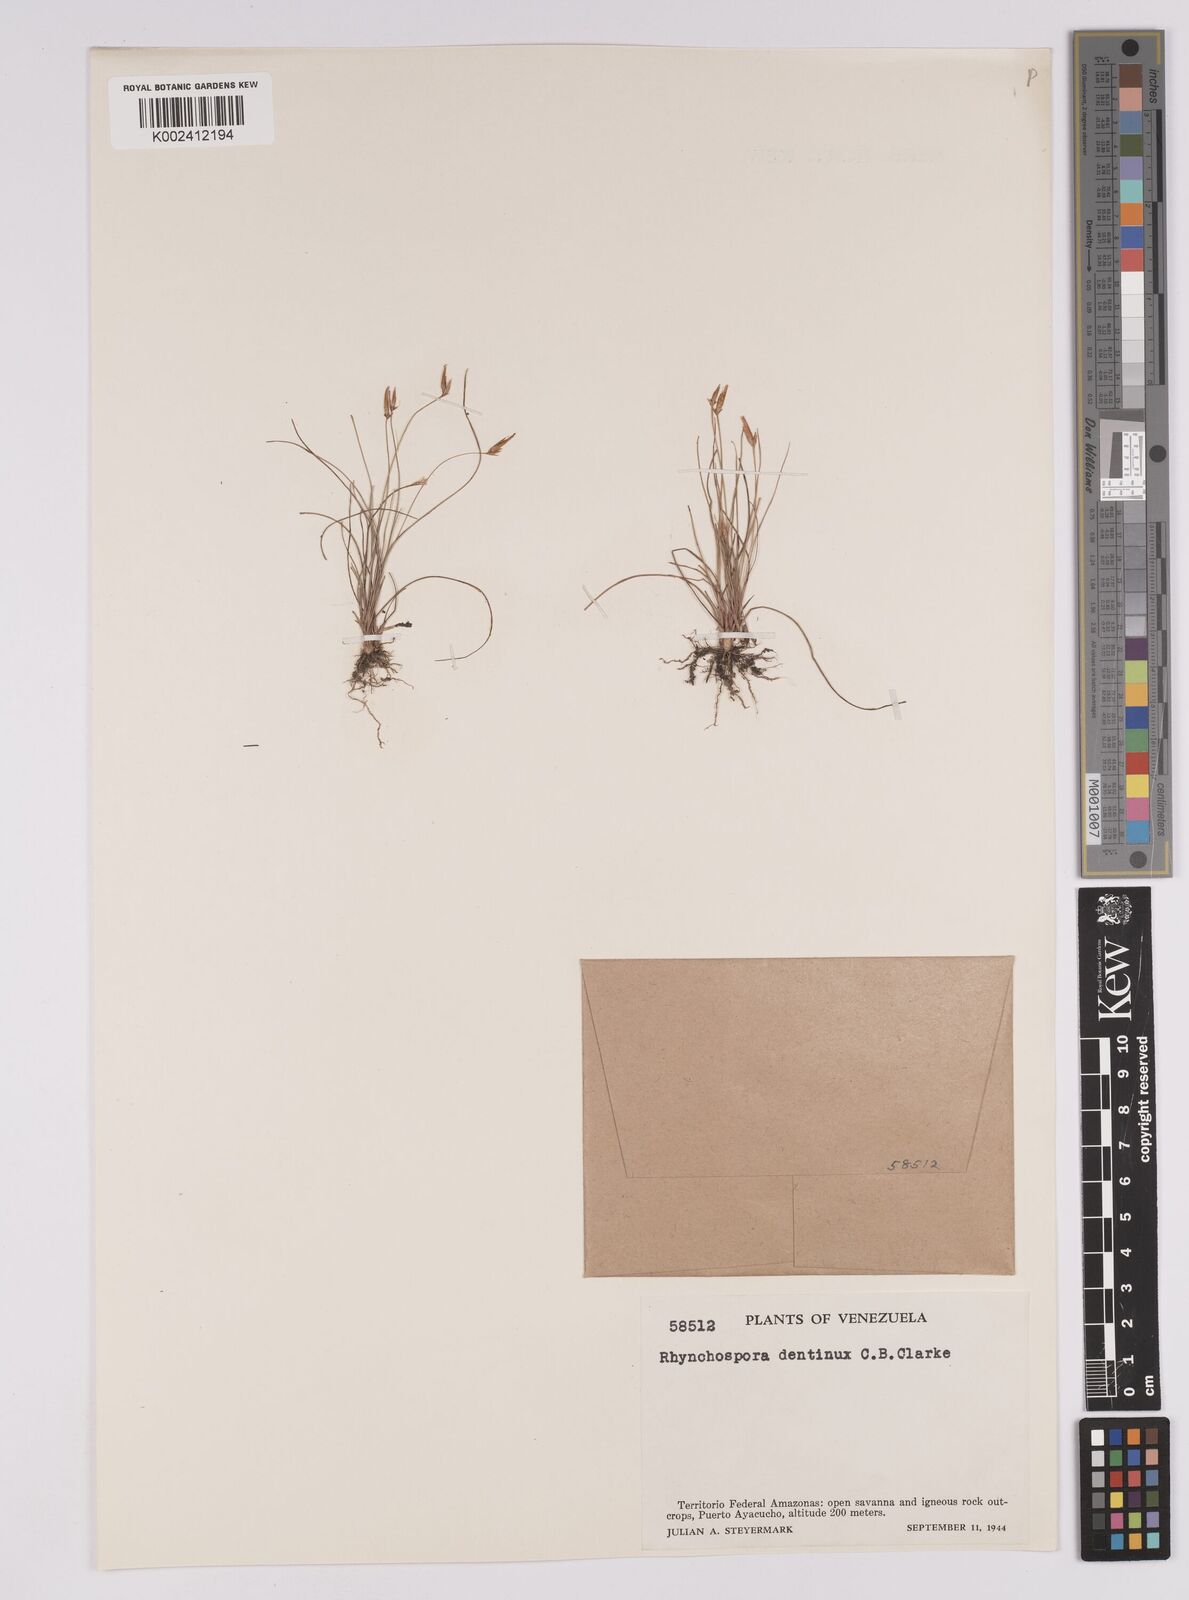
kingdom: Plantae
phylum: Tracheophyta
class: Liliopsida
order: Poales
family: Cyperaceae
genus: Rhynchospora
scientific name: Rhynchospora dentinux
